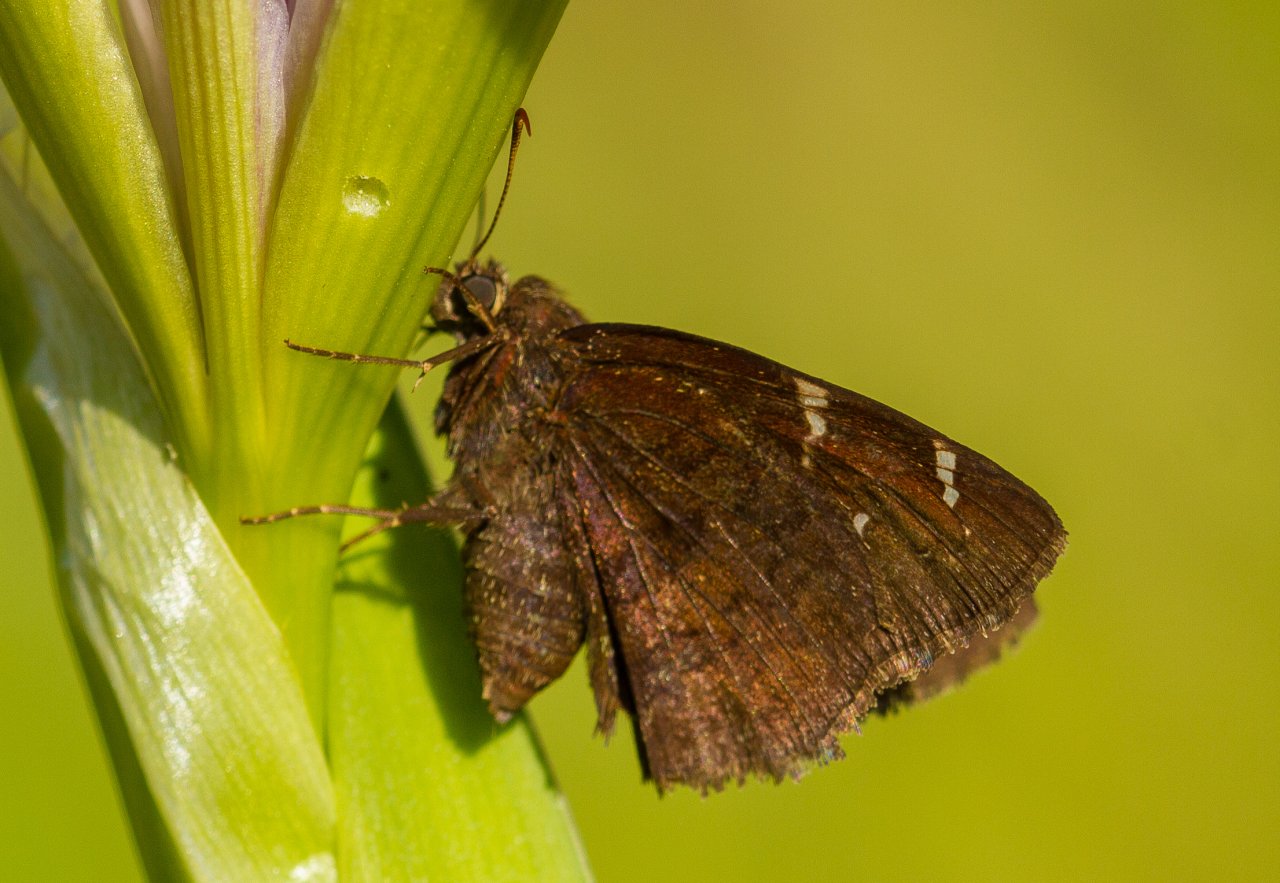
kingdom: Animalia
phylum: Arthropoda
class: Insecta
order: Lepidoptera
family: Hesperiidae
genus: Autochton
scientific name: Autochton
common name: Northern Cloudywing
